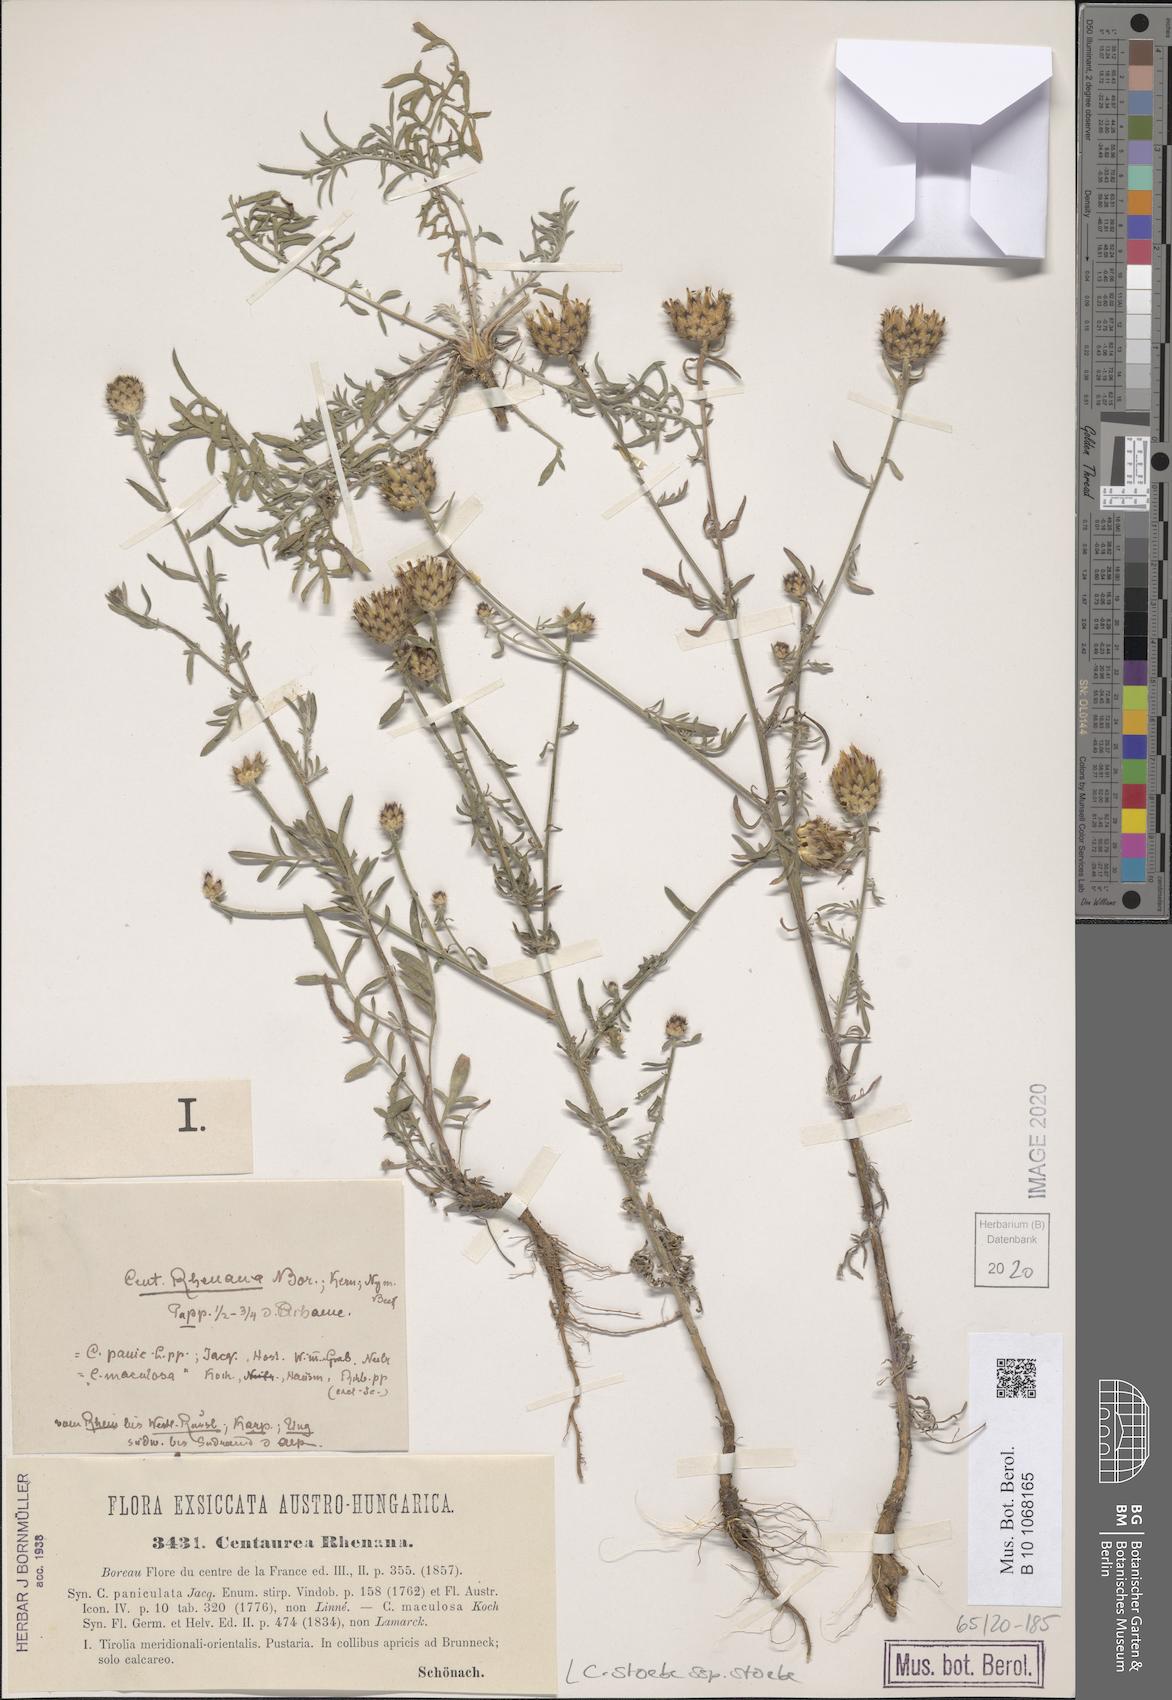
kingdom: Plantae
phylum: Tracheophyta
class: Magnoliopsida
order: Asterales
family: Asteraceae
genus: Centaurea
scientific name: Centaurea stoebe
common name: Spotted knapweed
